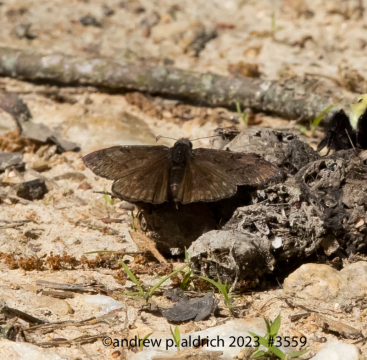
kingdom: Animalia
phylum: Arthropoda
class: Insecta
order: Lepidoptera
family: Hesperiidae
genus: Erynnis
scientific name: Erynnis brizo
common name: Sleepy Duskywing
